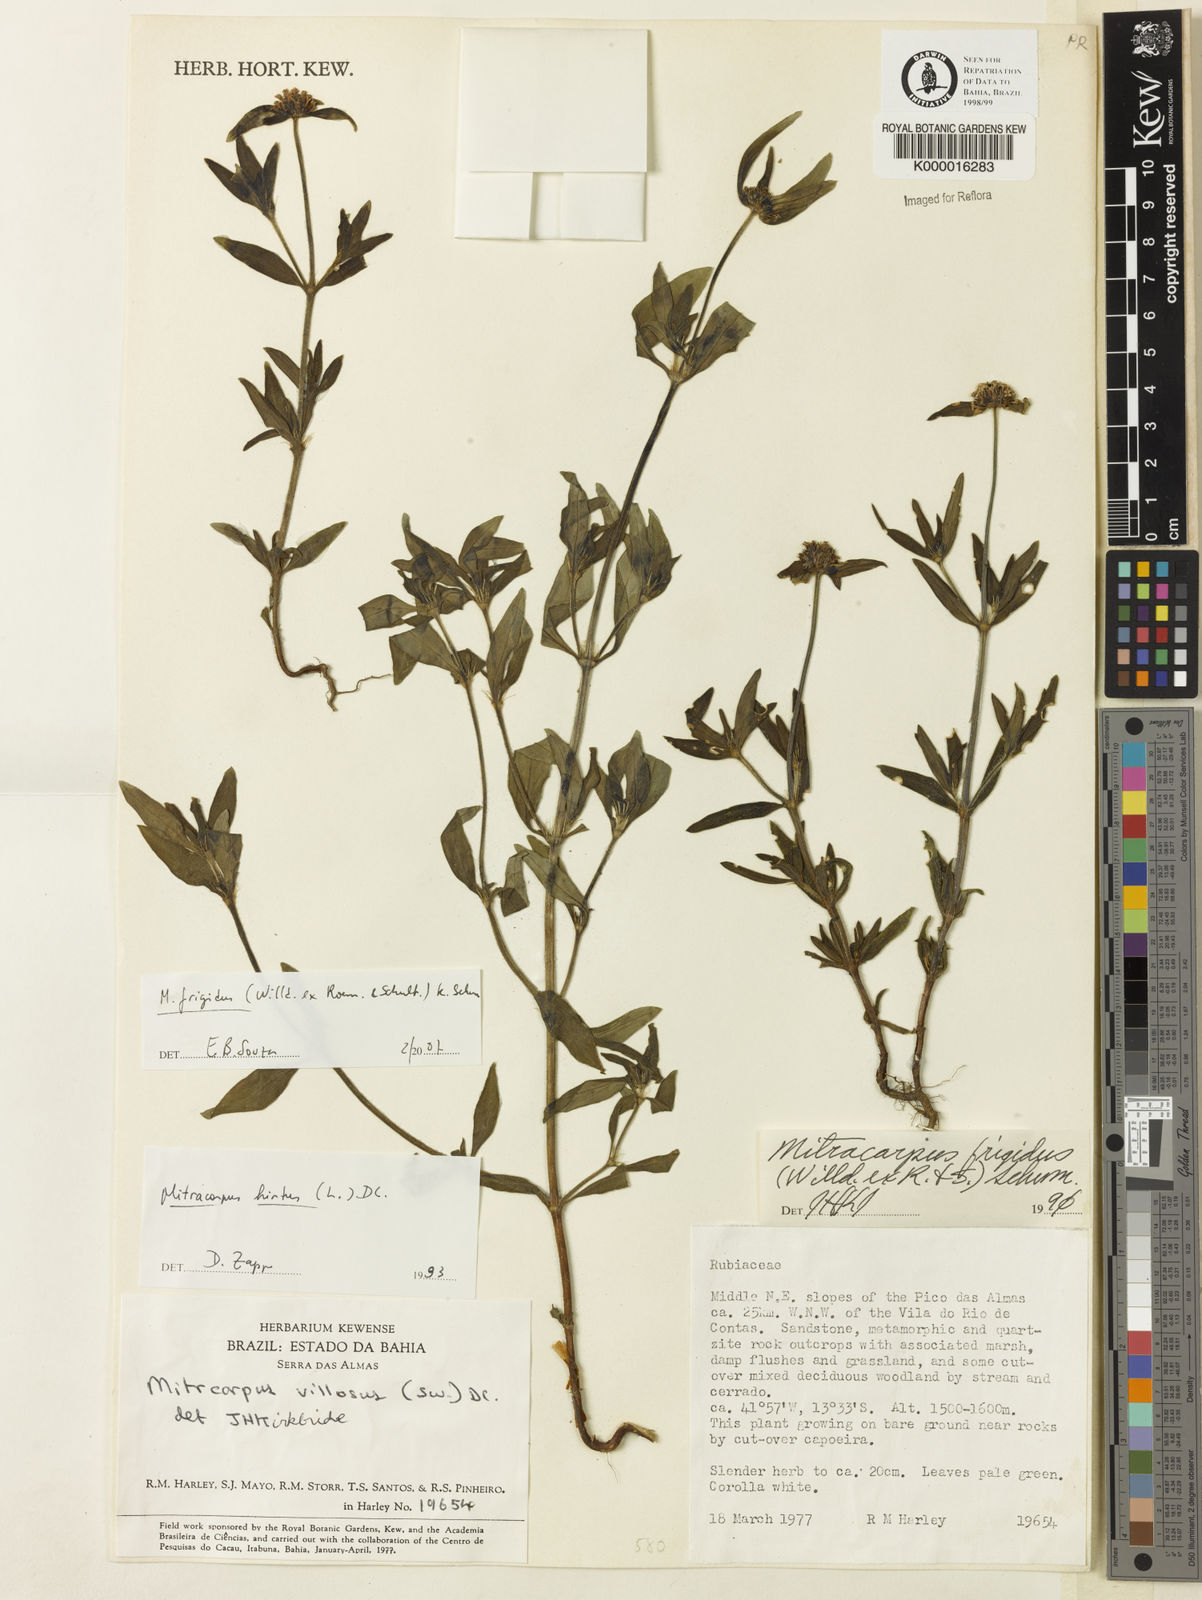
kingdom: Plantae
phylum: Tracheophyta
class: Magnoliopsida
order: Gentianales
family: Rubiaceae
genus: Mitracarpus
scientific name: Mitracarpus
